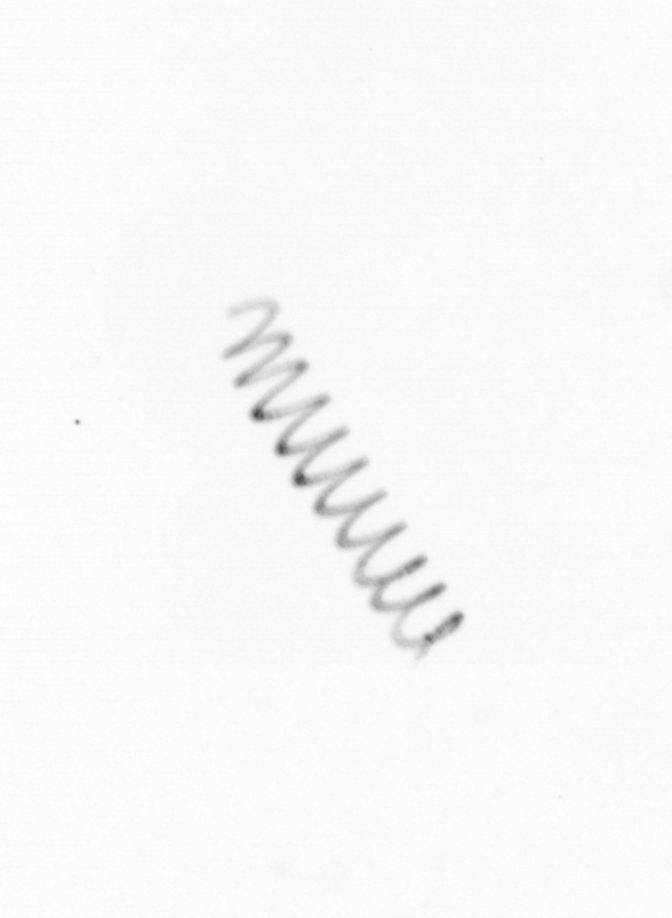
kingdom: Chromista
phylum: Ochrophyta
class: Bacillariophyceae
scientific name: Bacillariophyceae
